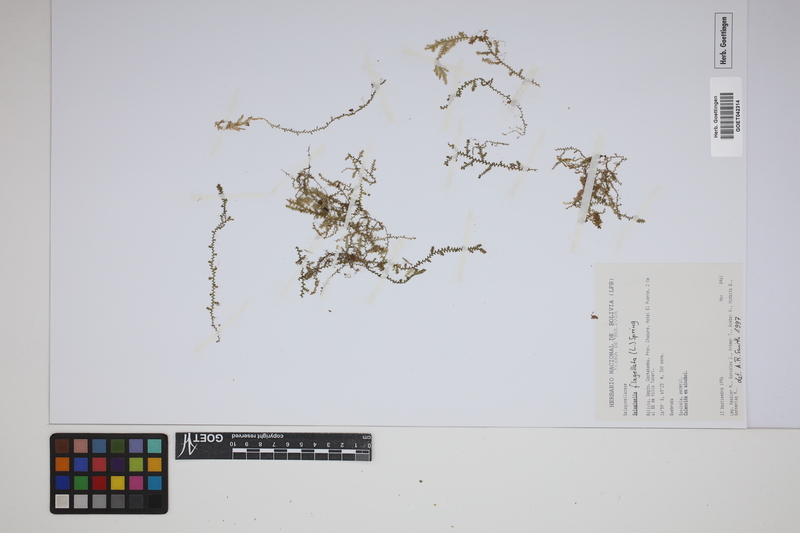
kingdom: Plantae
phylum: Tracheophyta
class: Lycopodiopsida
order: Selaginellales
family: Selaginellaceae
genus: Selaginella
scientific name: Selaginella flagellata
